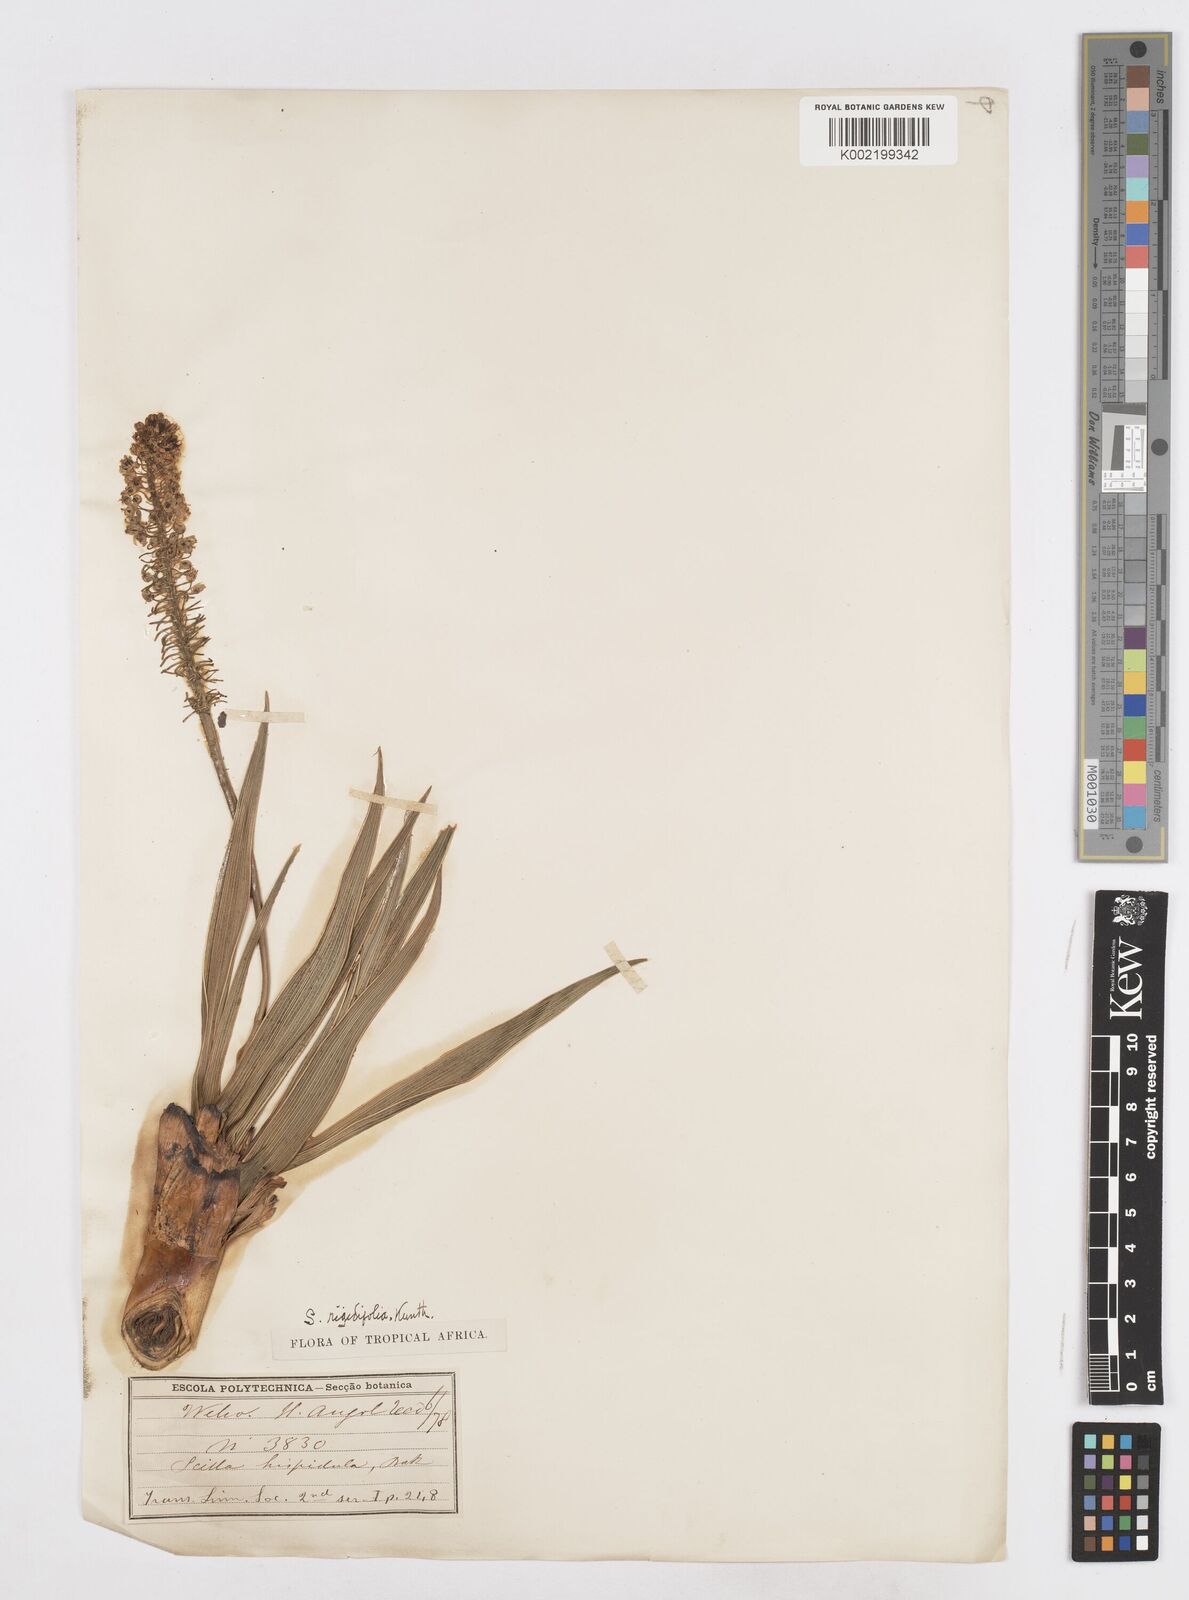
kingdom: Plantae
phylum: Tracheophyta
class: Liliopsida
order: Asparagales
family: Asparagaceae
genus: Schizocarphus
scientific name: Schizocarphus nervosus
